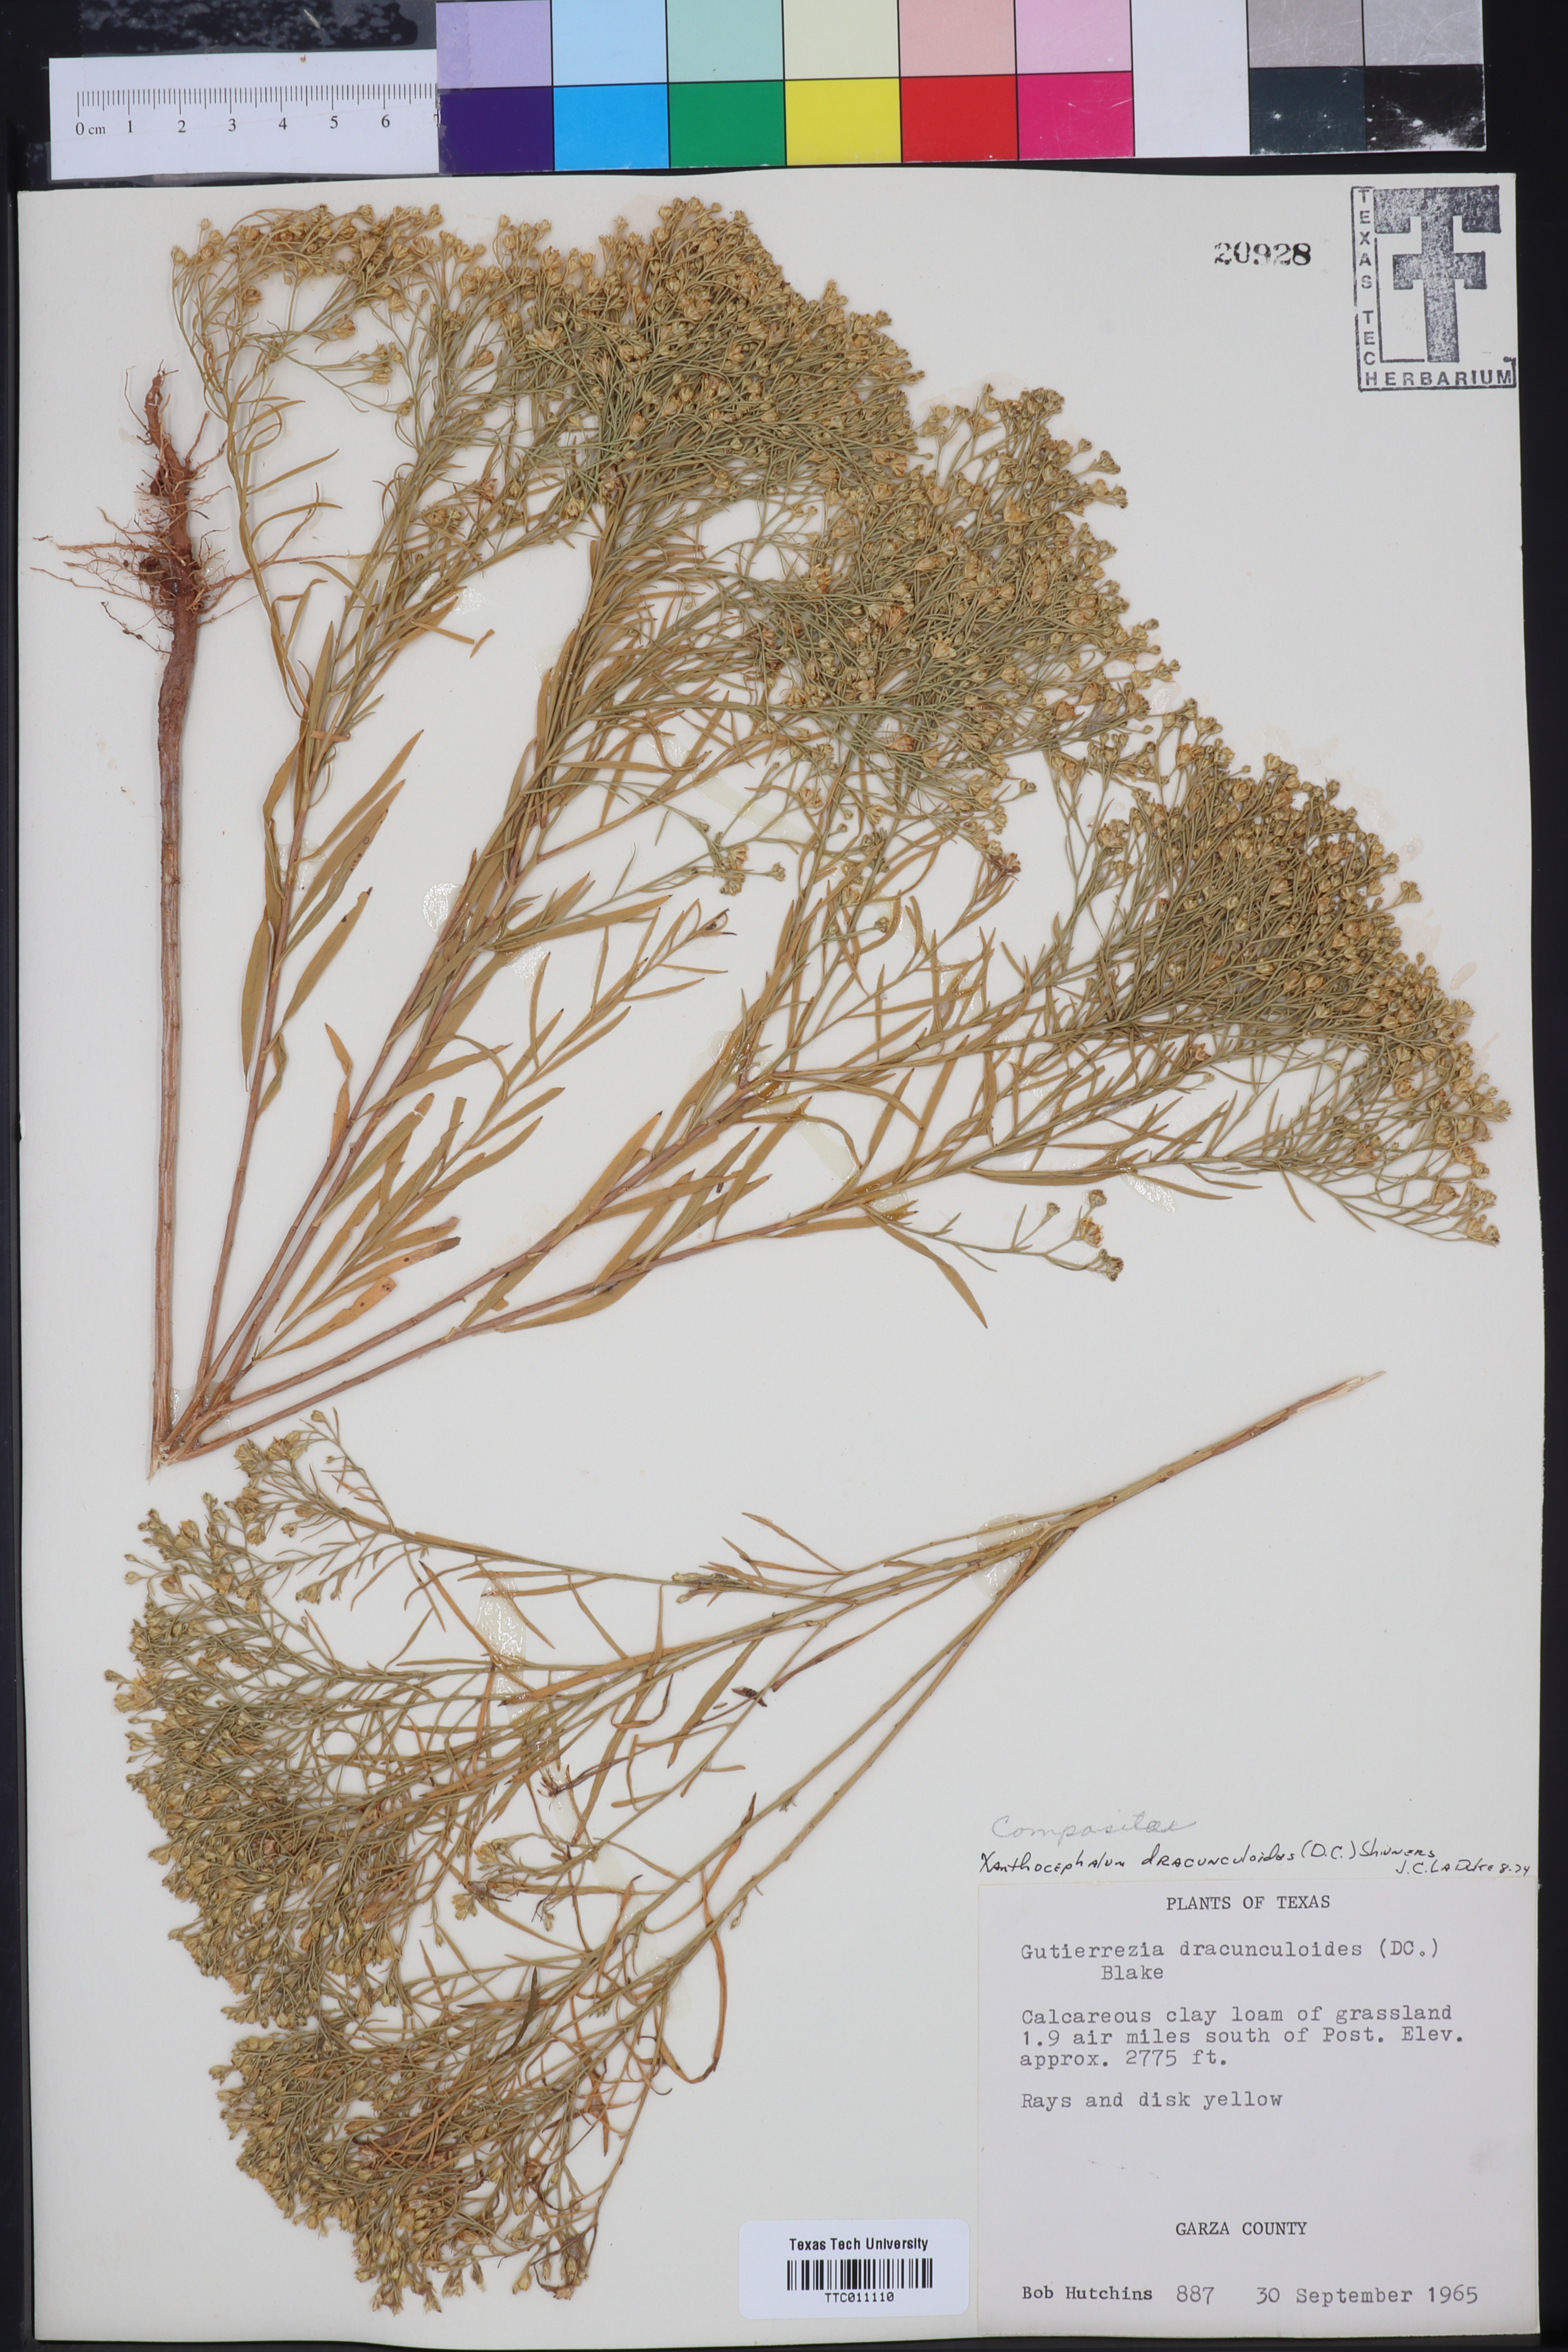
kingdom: Plantae
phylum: Tracheophyta
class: Magnoliopsida
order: Asterales
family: Asteraceae
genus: Amphiachyris
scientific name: Amphiachyris dracunculoides
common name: Broomweed
